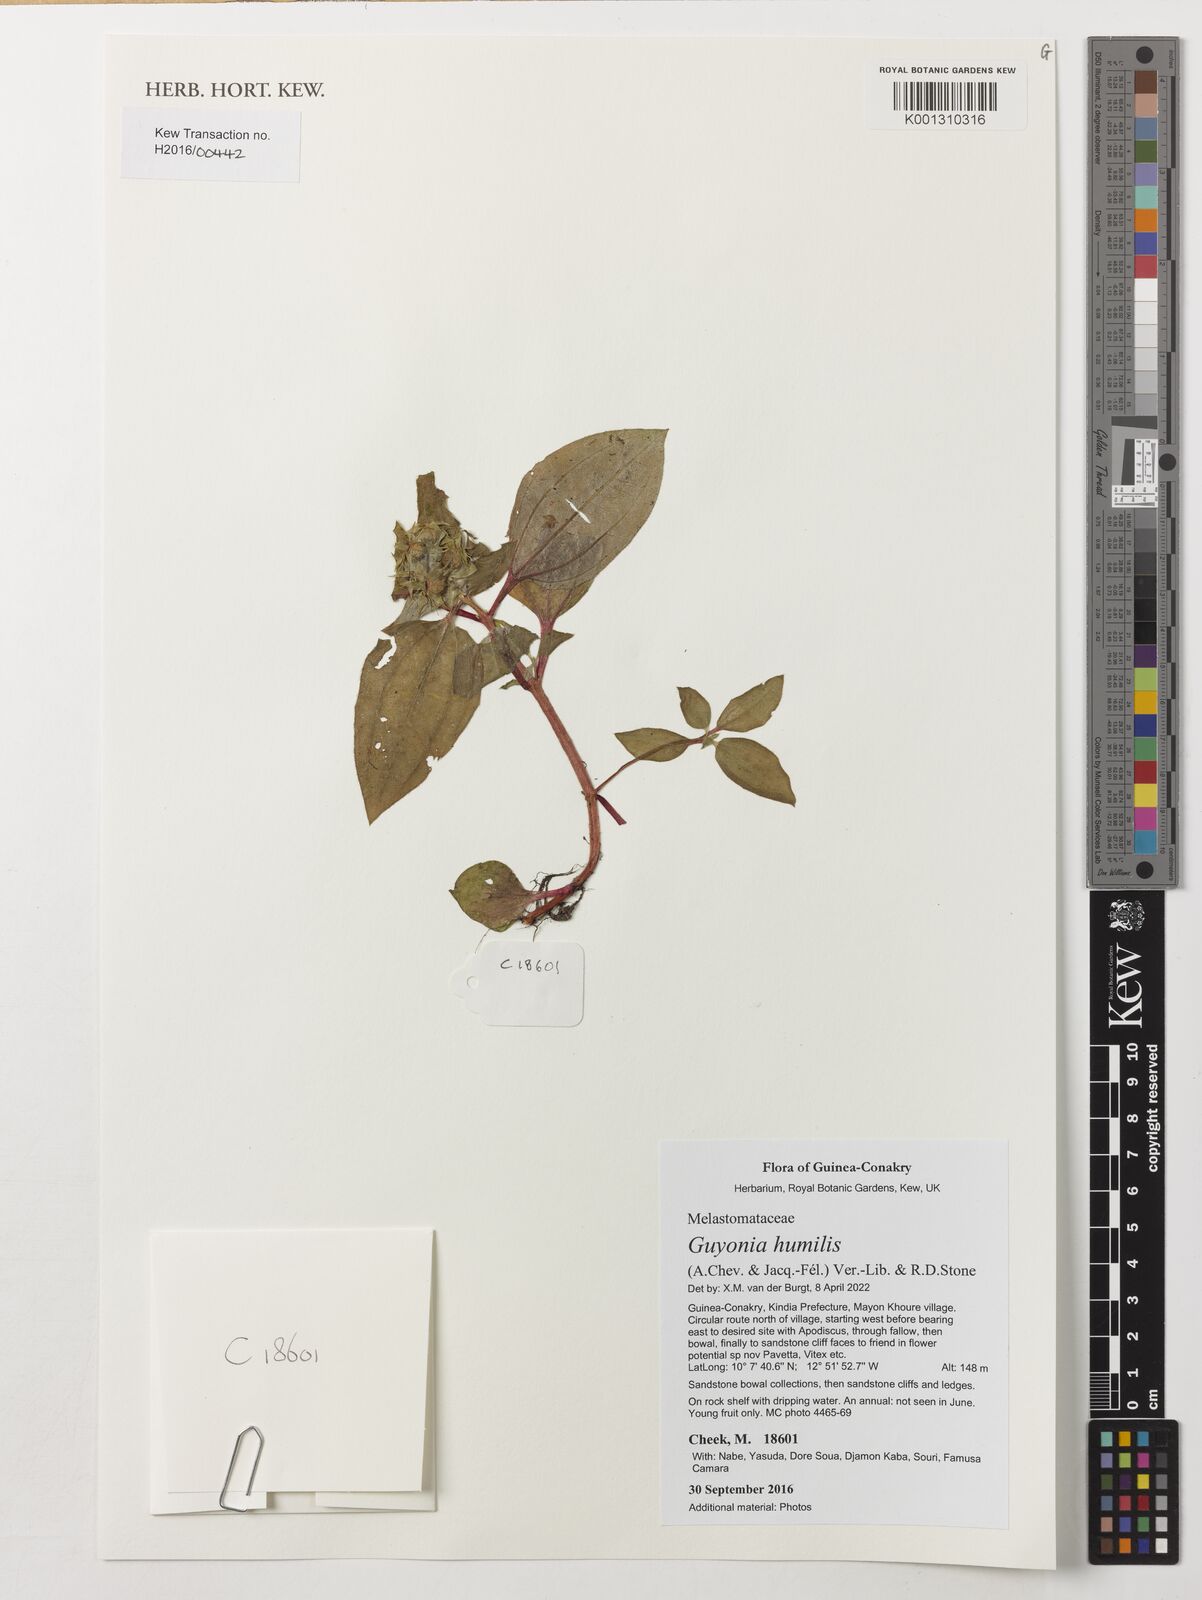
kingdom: Plantae
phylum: Tracheophyta
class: Magnoliopsida
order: Myrtales
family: Melastomataceae
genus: Guyonia
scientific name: Guyonia humilis
